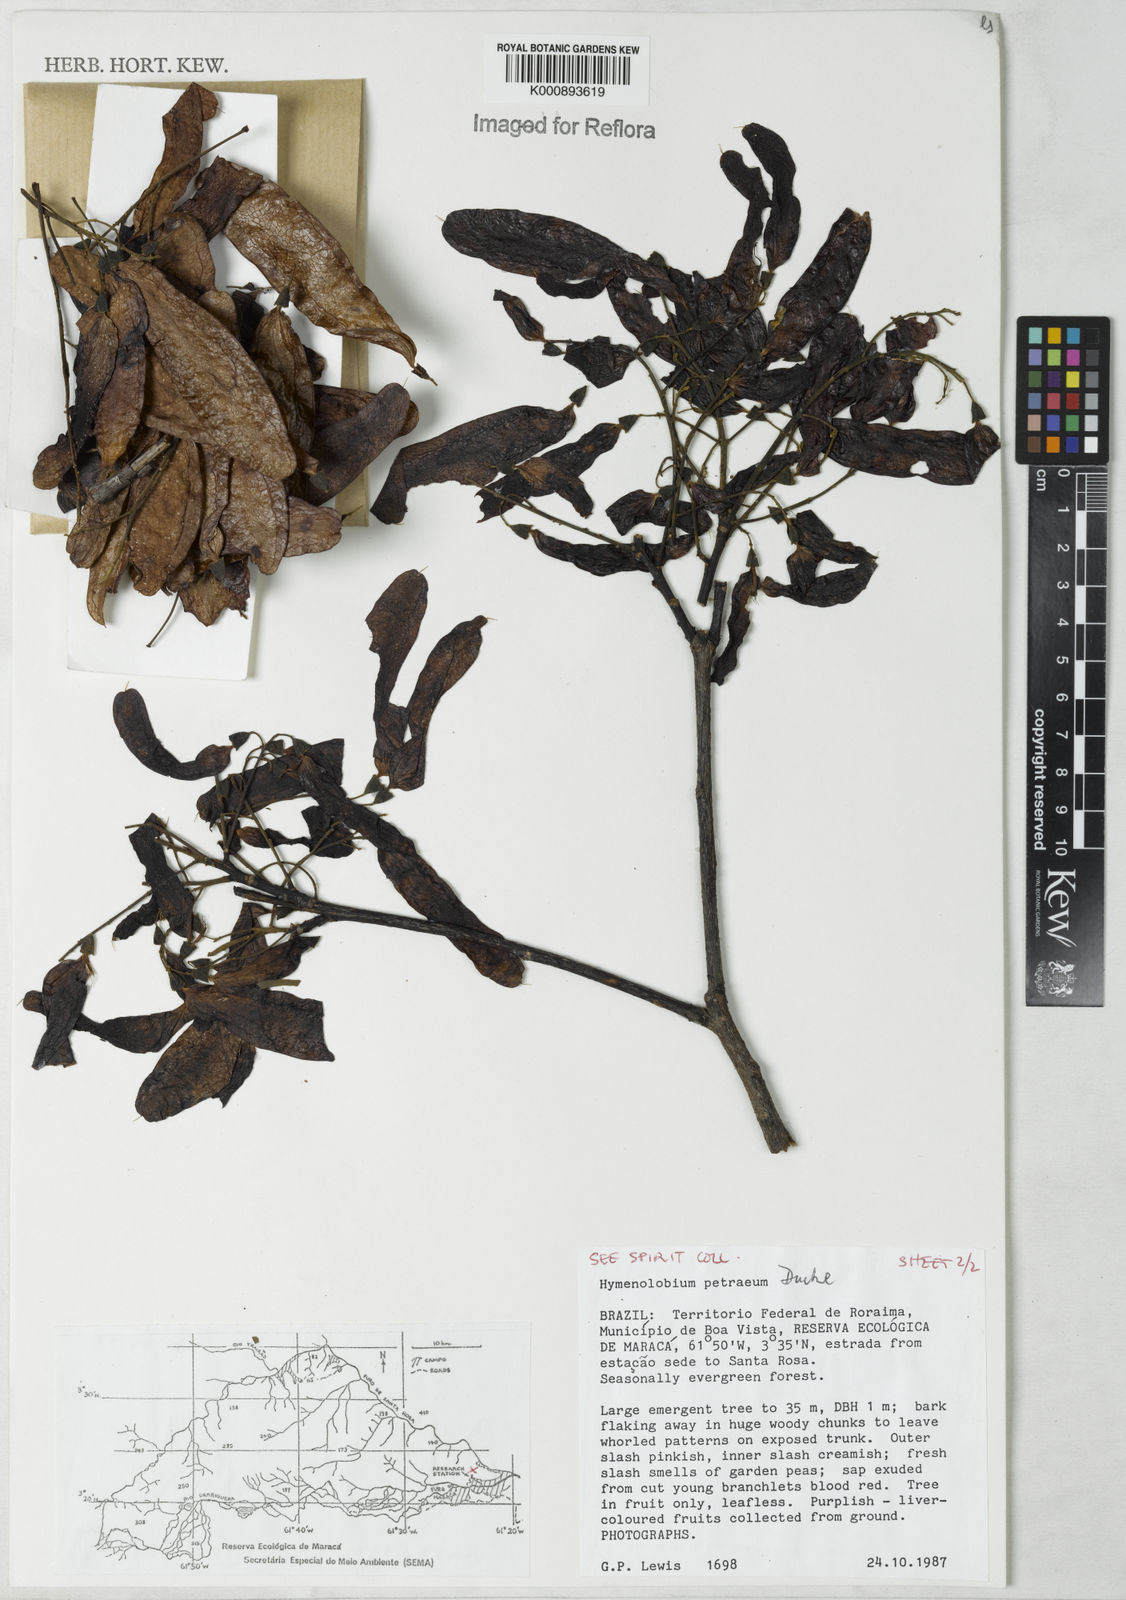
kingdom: Plantae
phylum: Tracheophyta
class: Magnoliopsida
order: Fabales
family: Fabaceae
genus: Hymenolobium
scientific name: Hymenolobium petraeum
